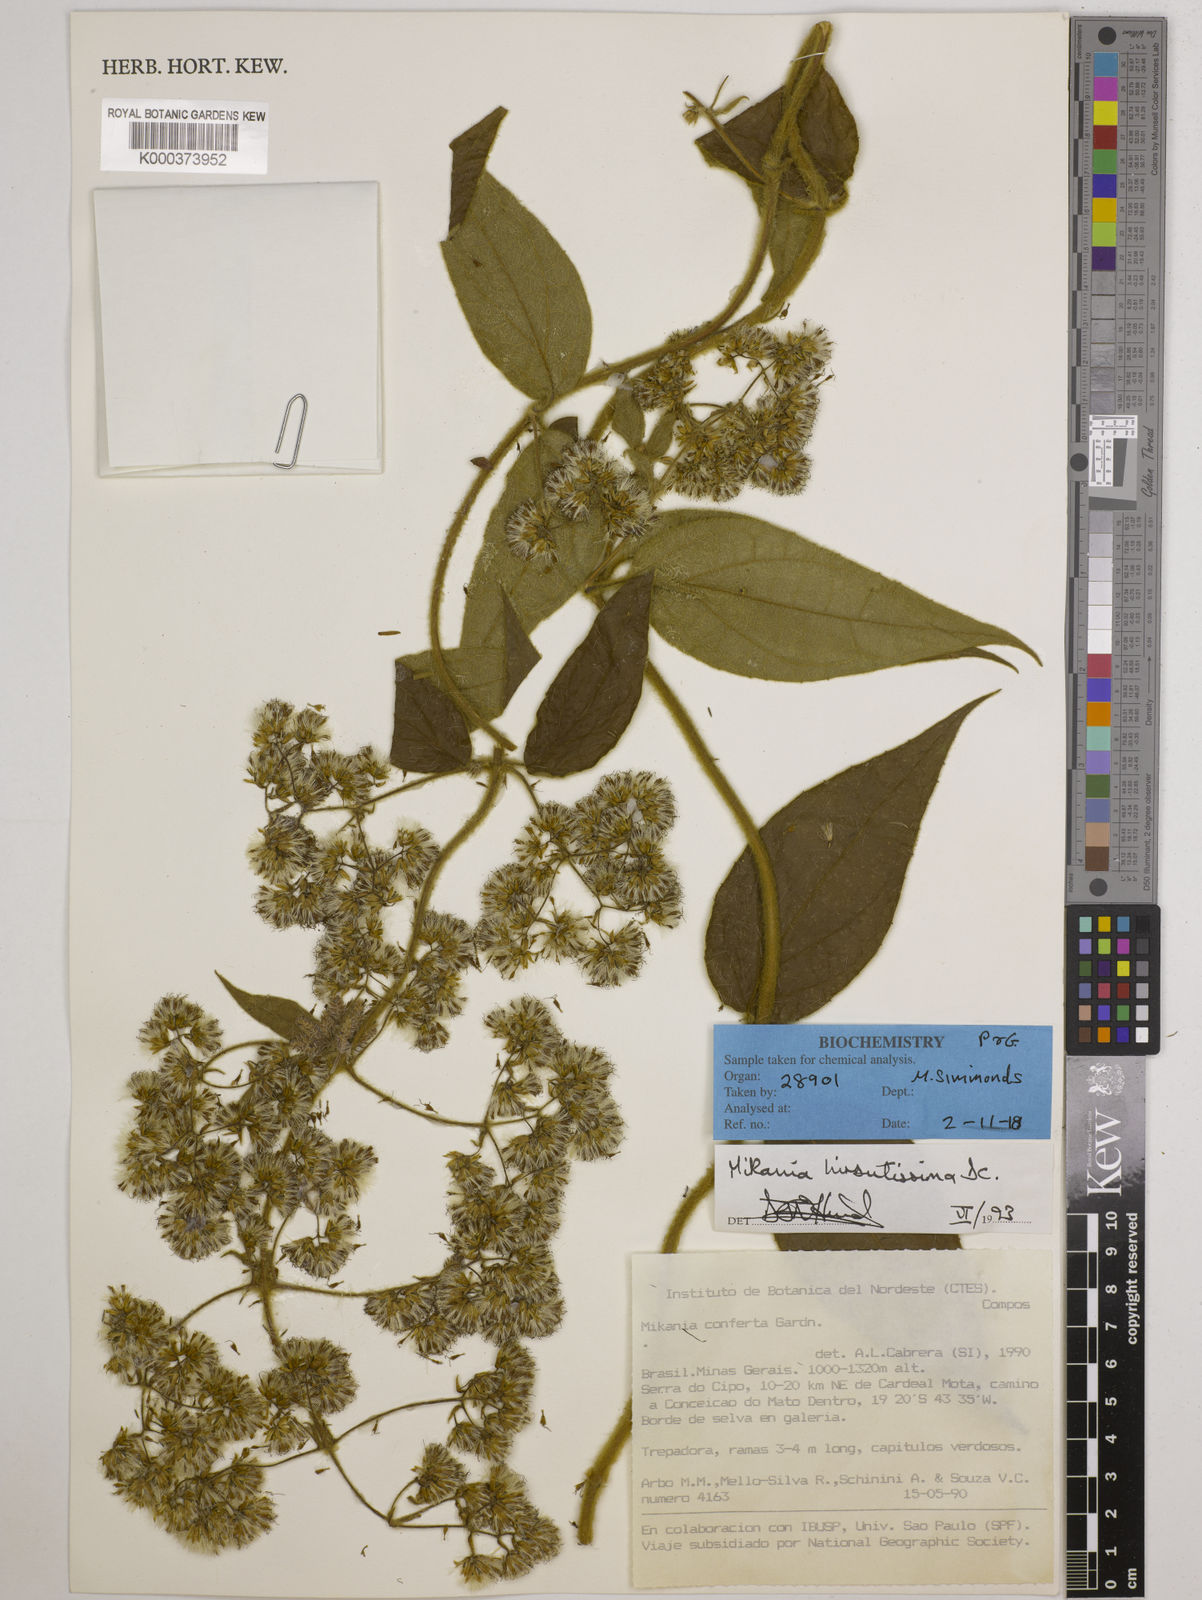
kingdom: Plantae
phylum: Tracheophyta
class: Magnoliopsida
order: Asterales
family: Asteraceae
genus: Mikania
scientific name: Mikania banisteriae
